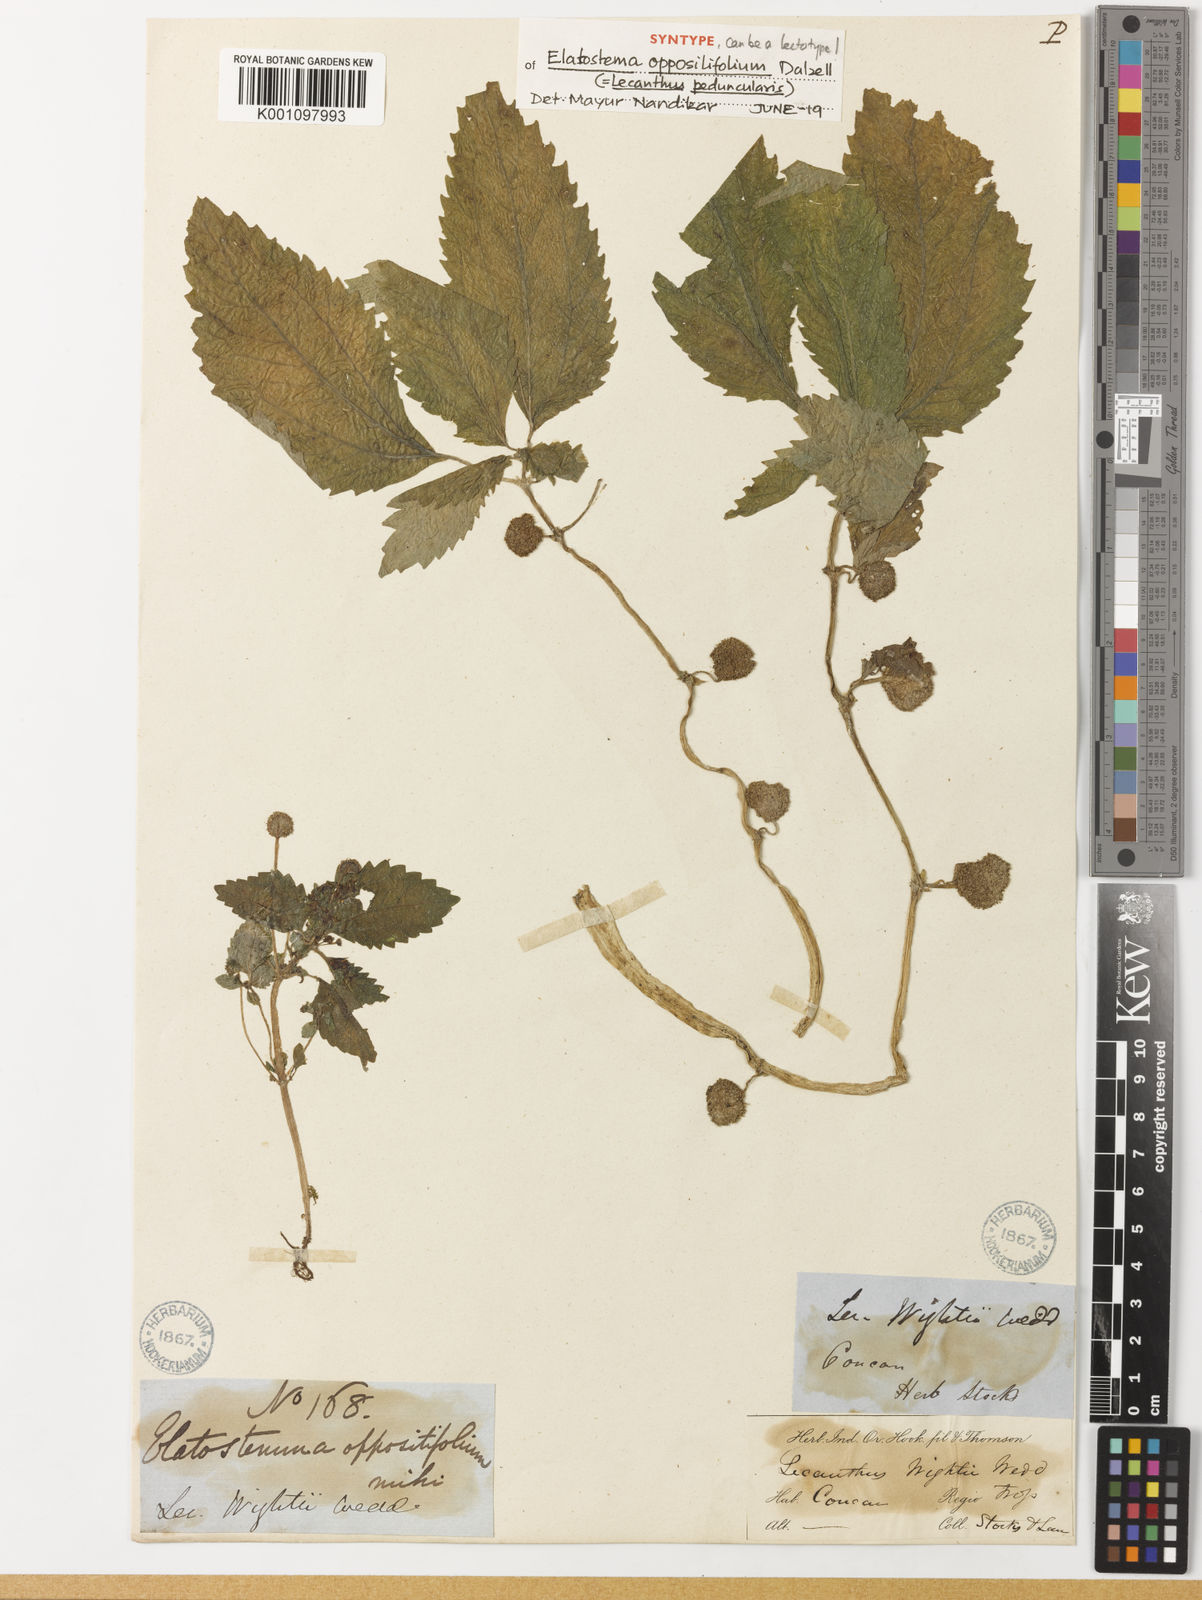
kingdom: Plantae
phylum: Tracheophyta
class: Magnoliopsida
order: Rosales
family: Urticaceae
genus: Lecanthus
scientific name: Lecanthus peduncularis
